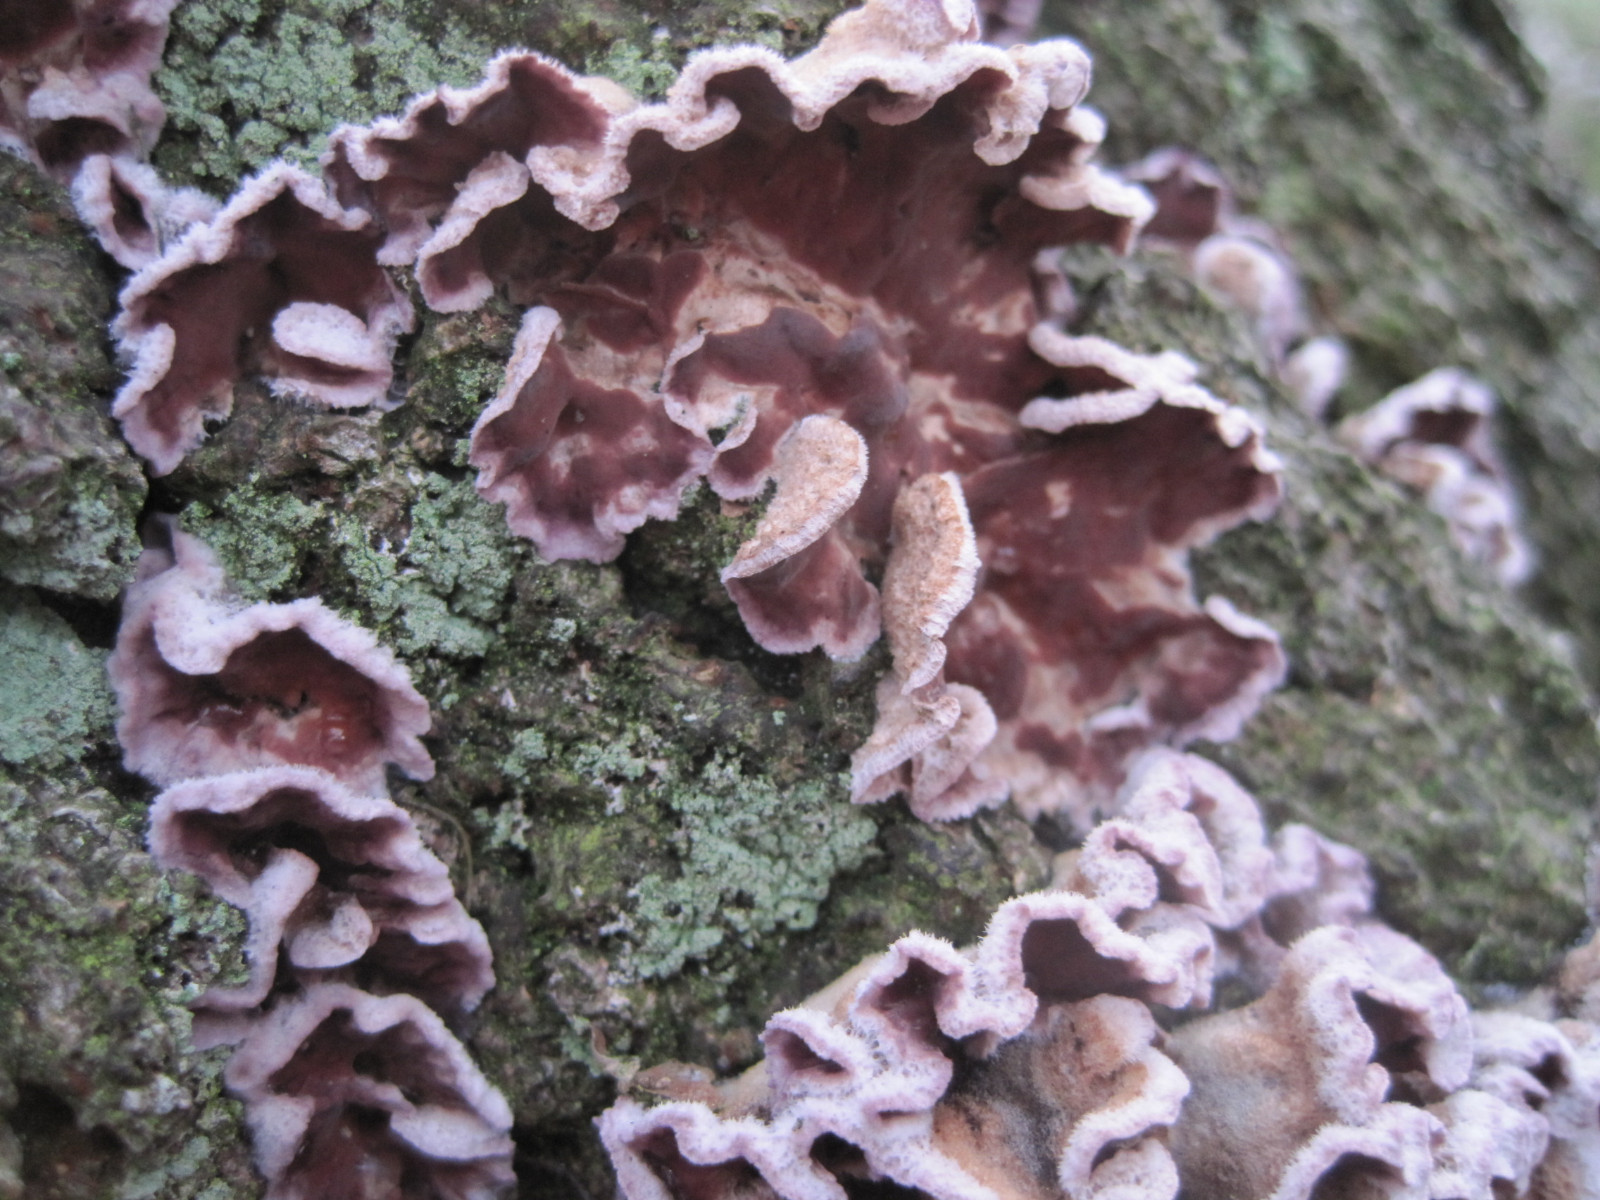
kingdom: Fungi
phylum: Basidiomycota
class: Agaricomycetes
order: Agaricales
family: Cyphellaceae
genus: Chondrostereum
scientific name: Chondrostereum purpureum
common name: purpurlædersvamp
